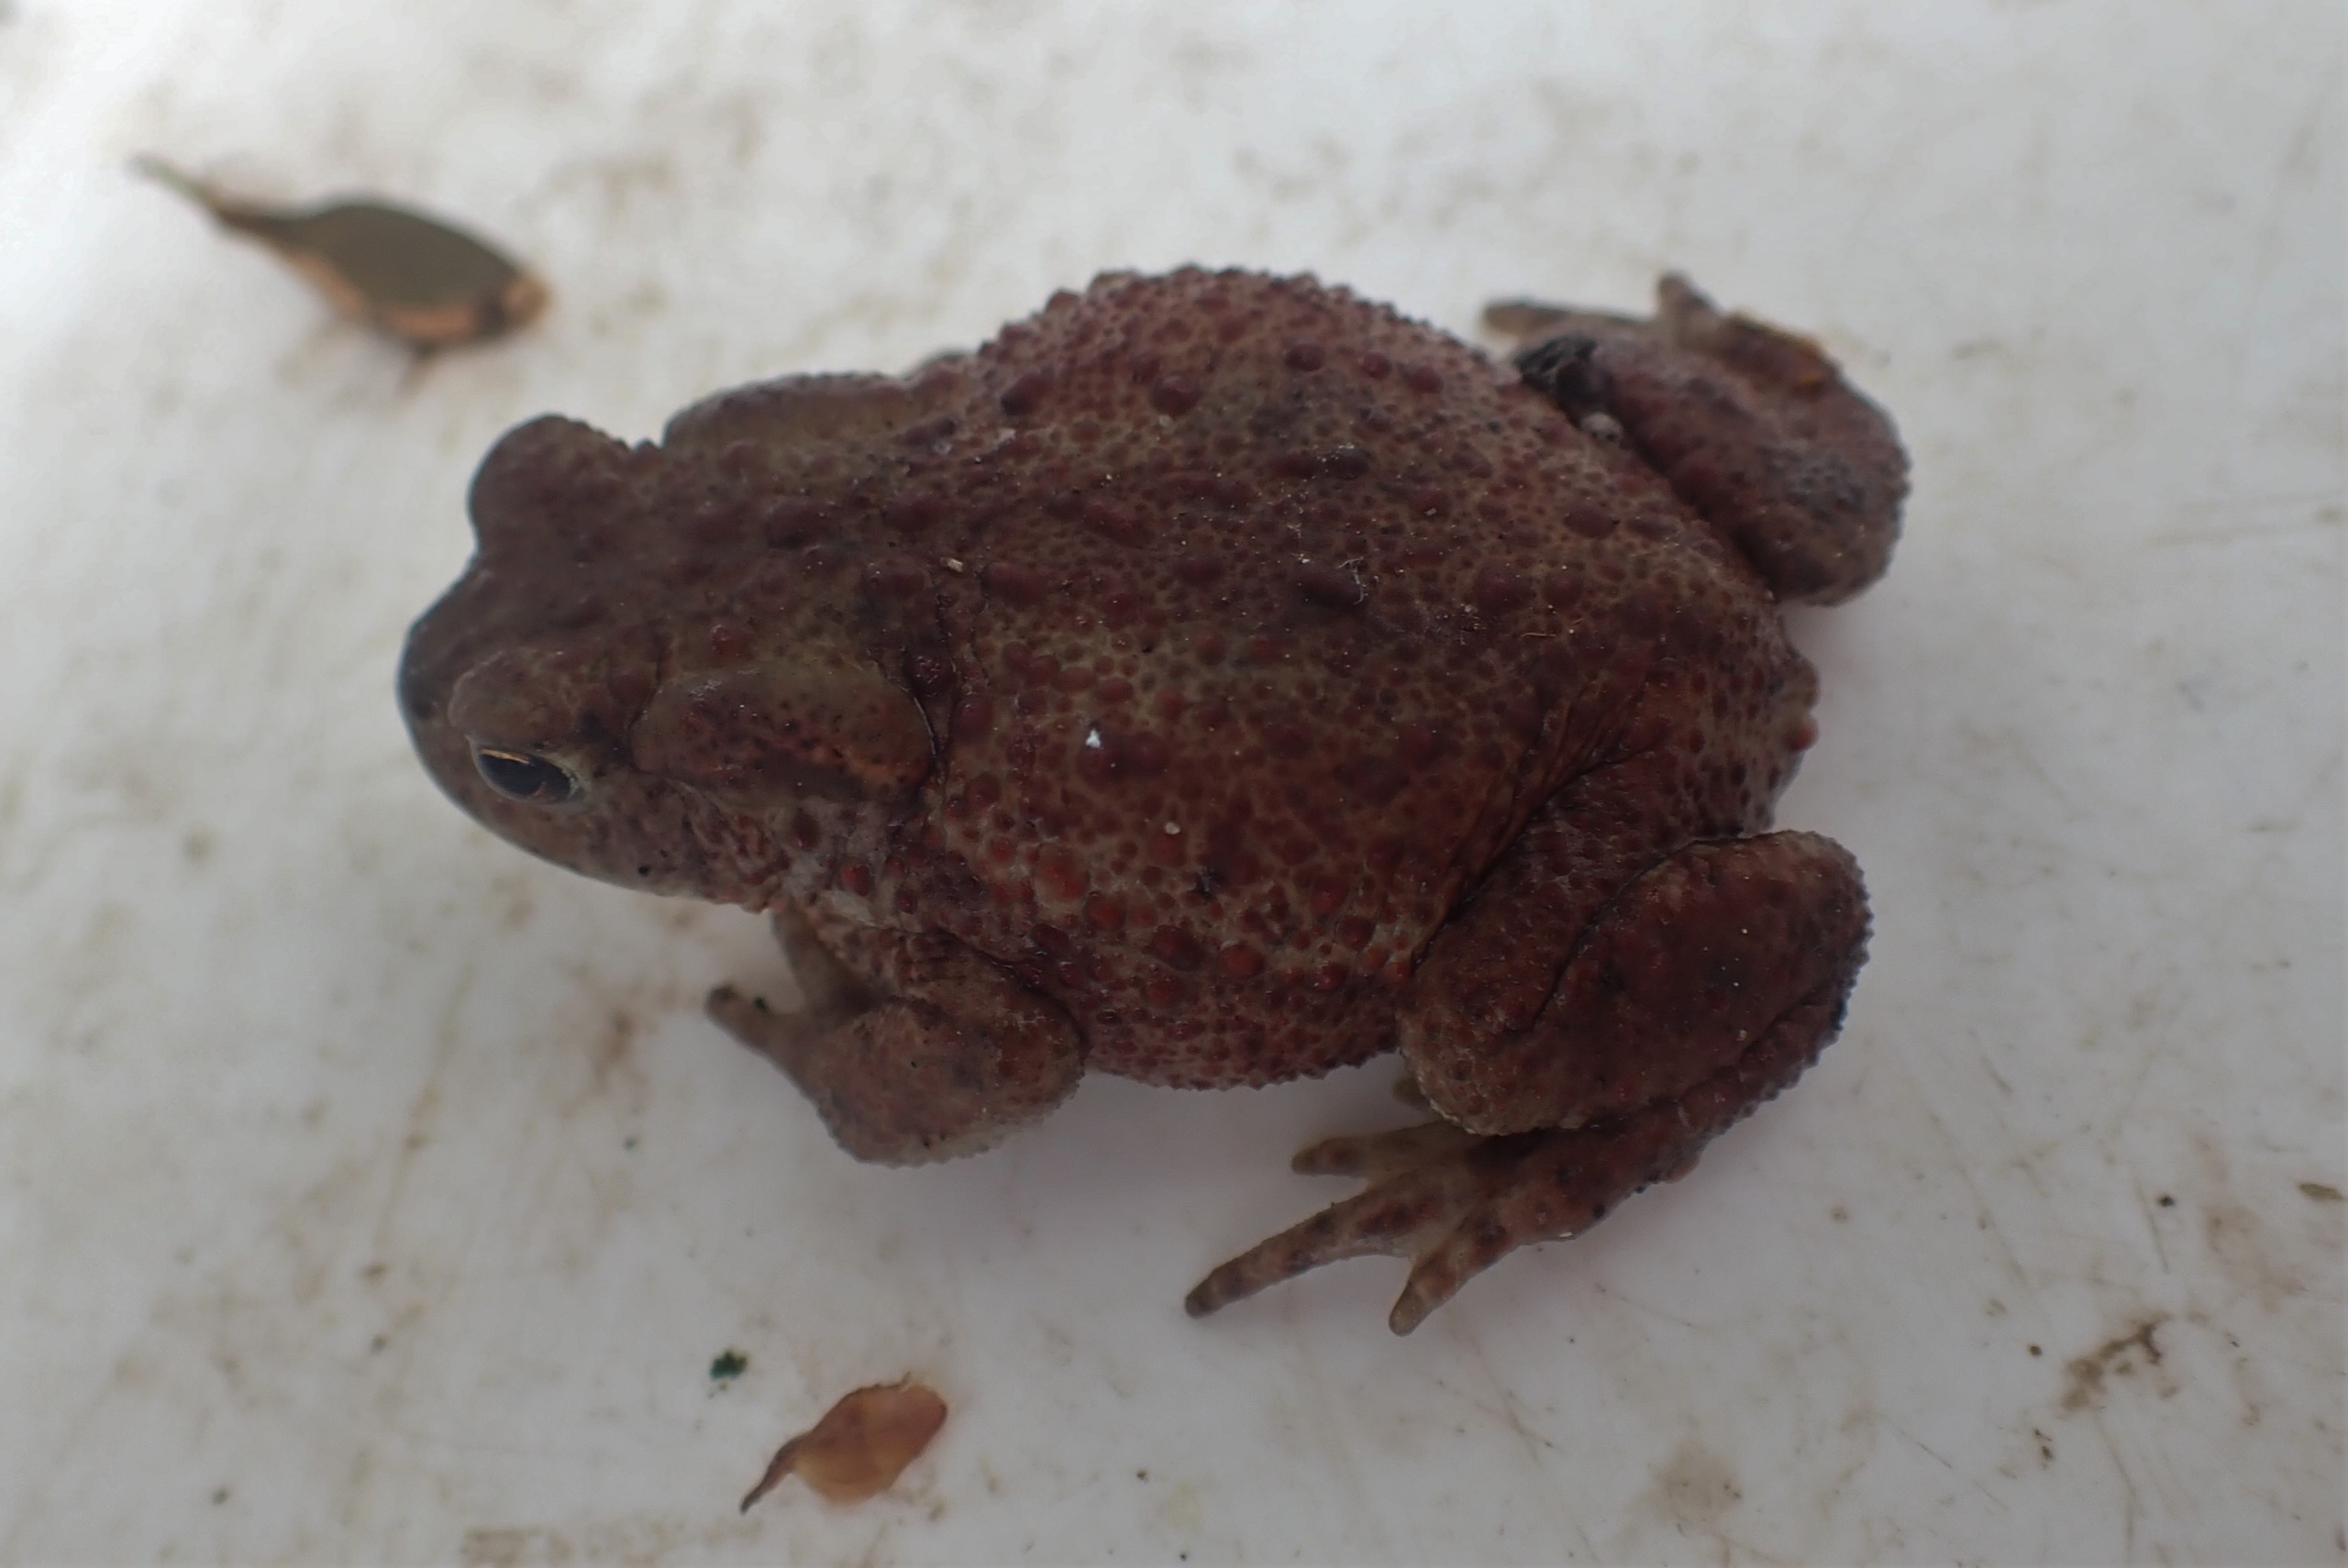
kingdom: Animalia
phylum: Chordata
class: Amphibia
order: Anura
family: Bufonidae
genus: Bufo
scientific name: Bufo bufo
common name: Skrubtudse
